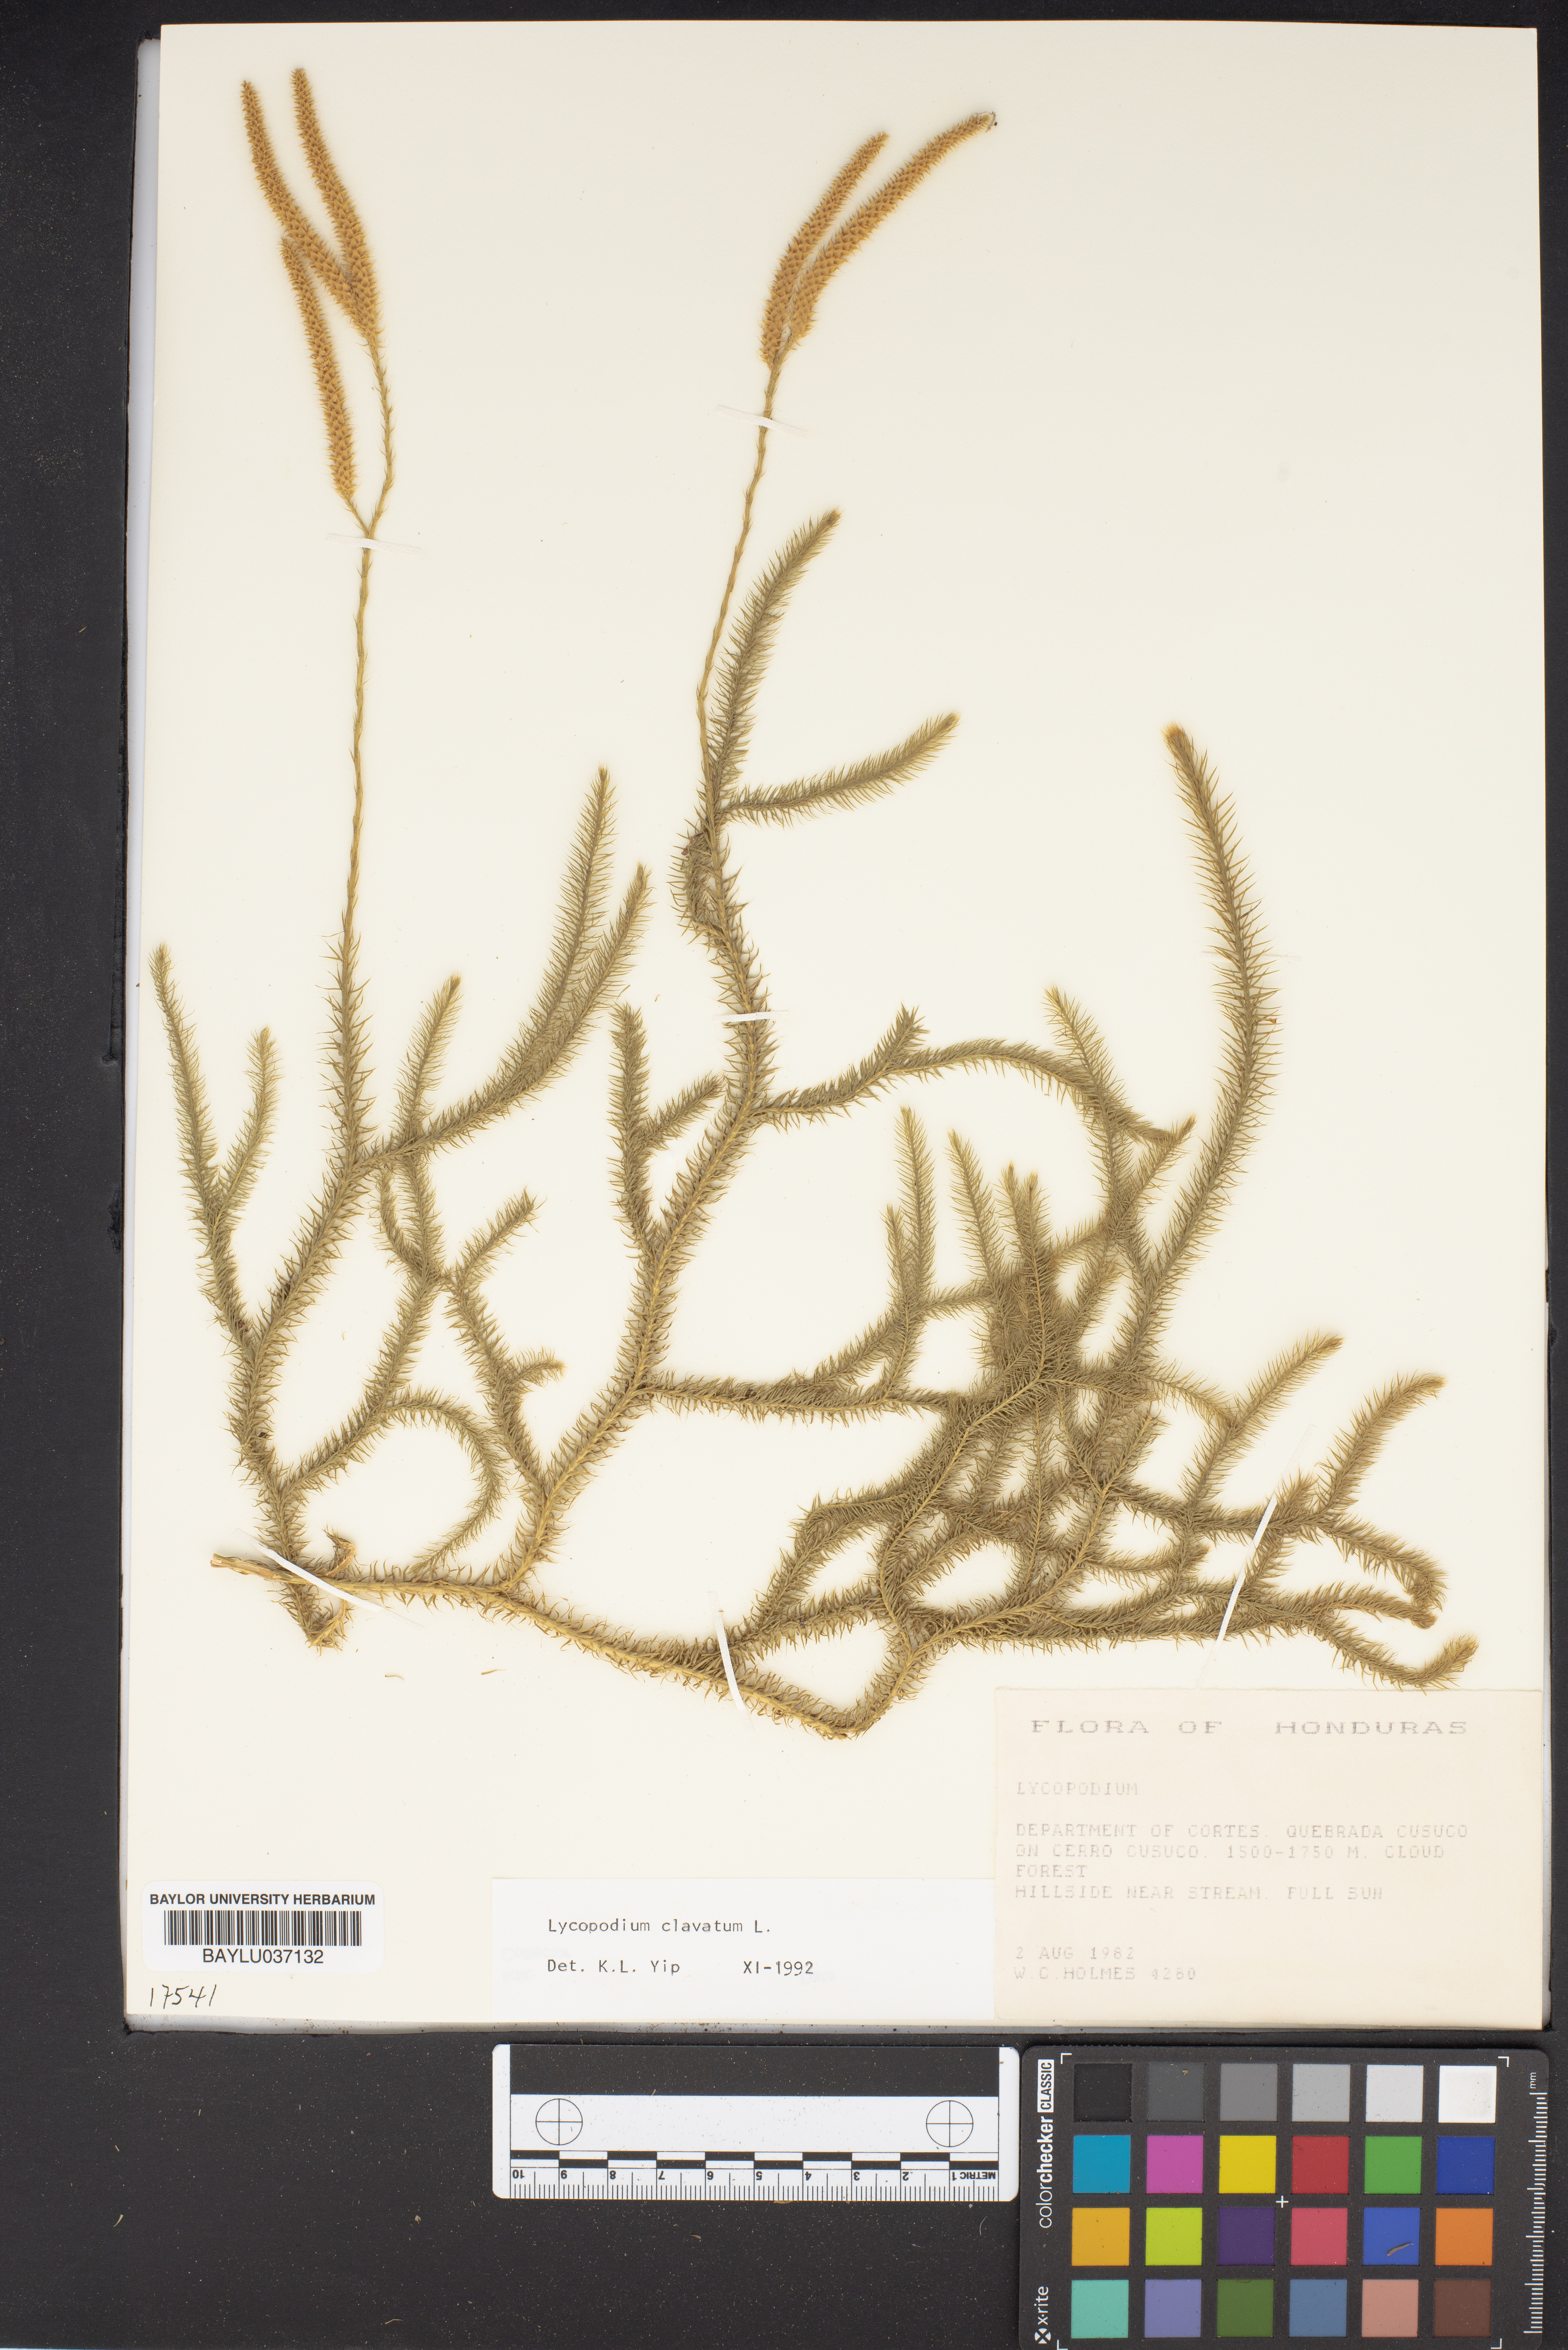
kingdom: Plantae
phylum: Tracheophyta
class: Lycopodiopsida
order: Lycopodiales
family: Lycopodiaceae
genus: Lycopodium
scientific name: Lycopodium
